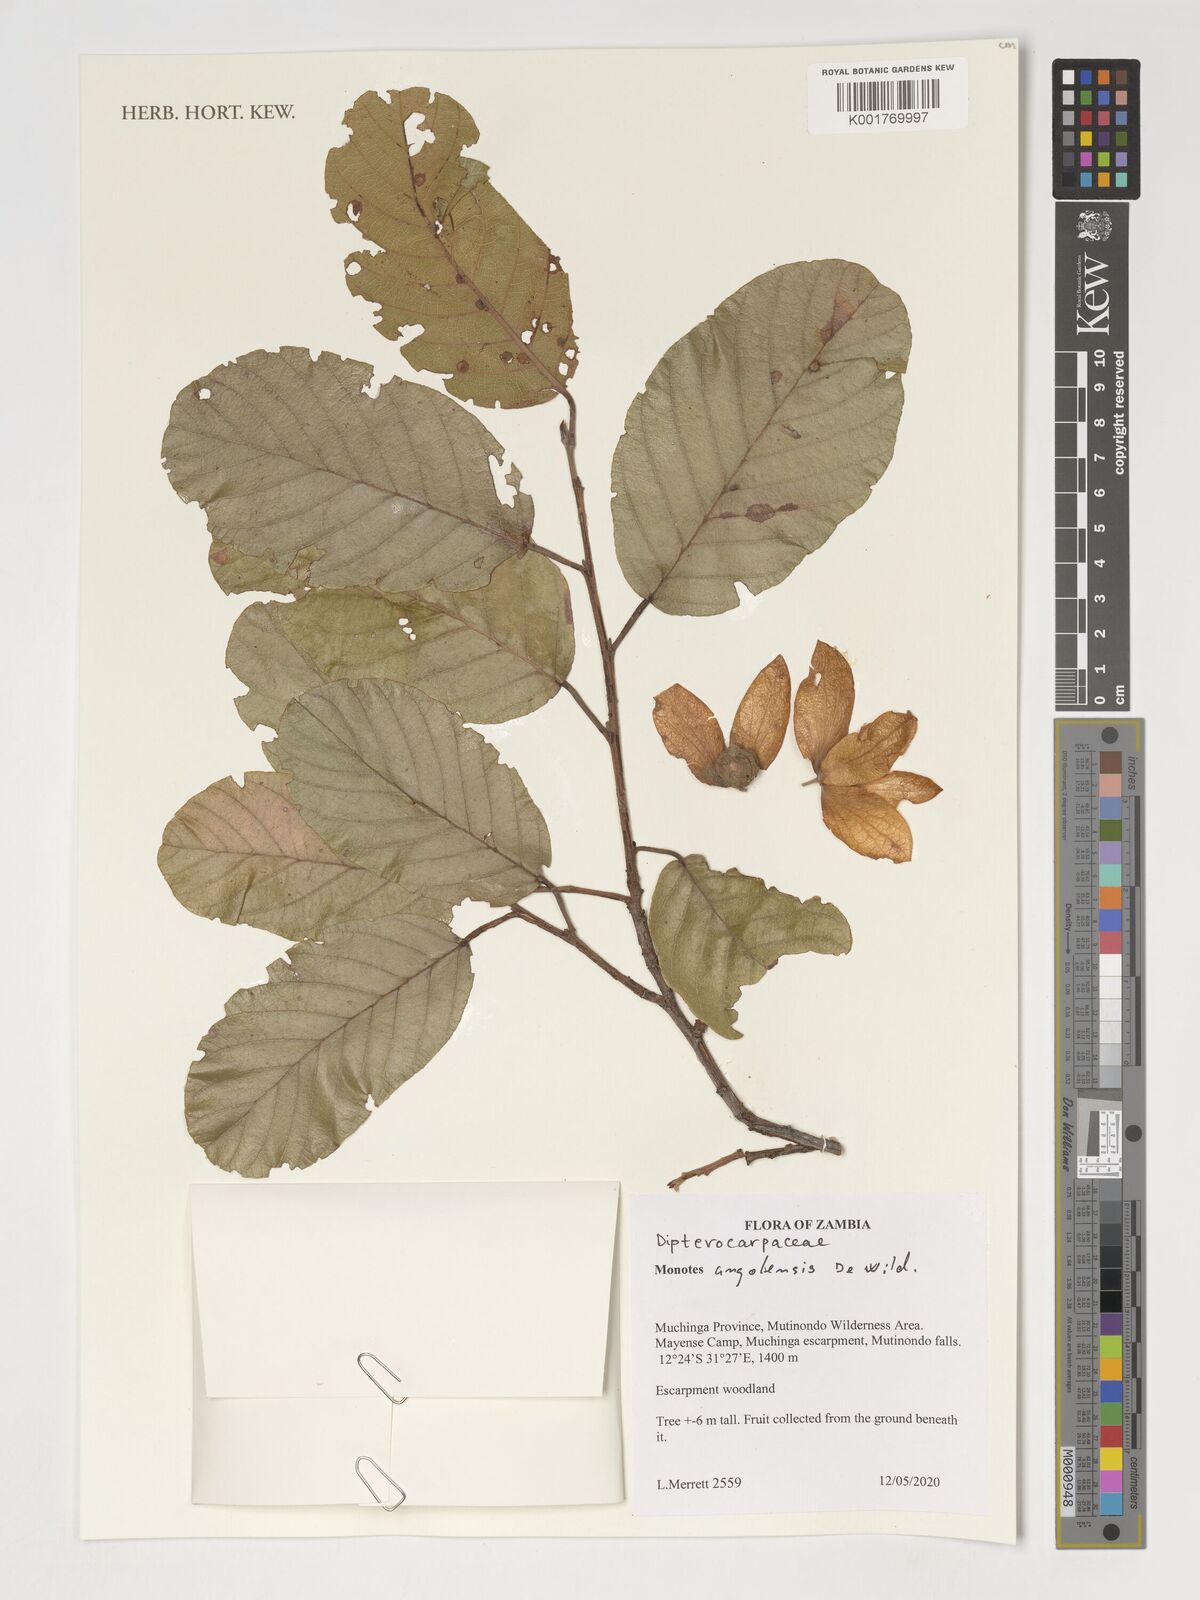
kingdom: Plantae
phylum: Tracheophyta
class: Magnoliopsida
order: Malvales
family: Dipterocarpaceae
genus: Monotes
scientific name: Monotes hypoleucus
